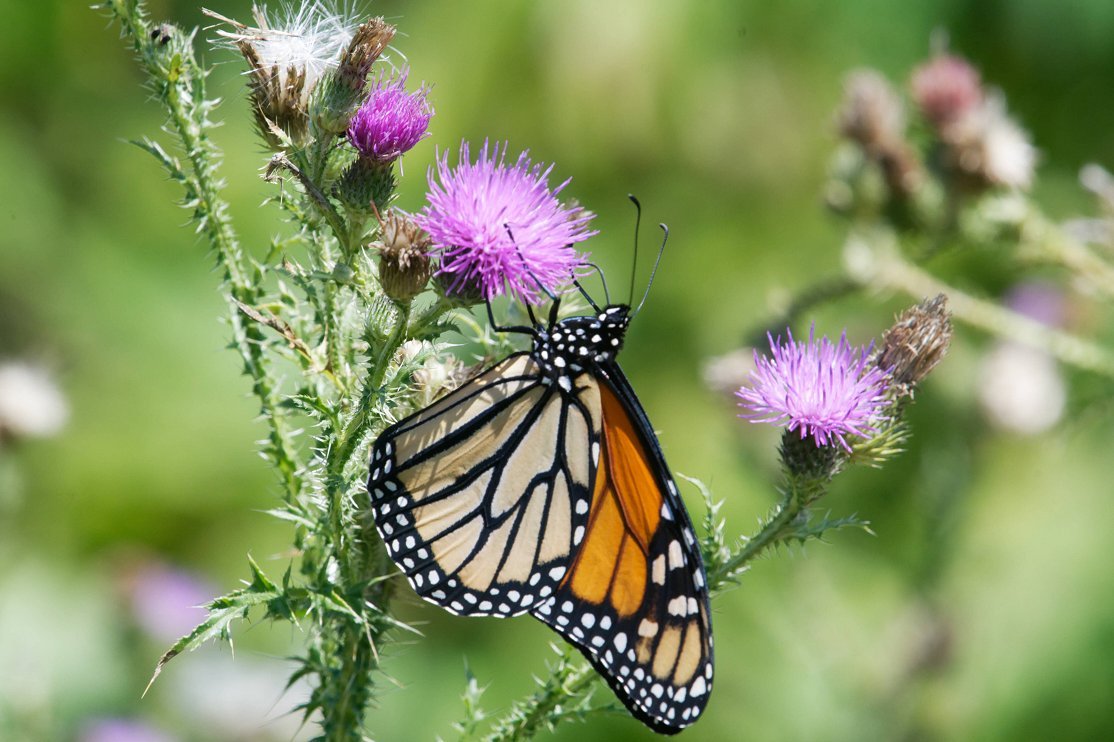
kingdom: Animalia
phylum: Arthropoda
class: Insecta
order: Lepidoptera
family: Nymphalidae
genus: Danaus
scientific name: Danaus plexippus
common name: Monarch
